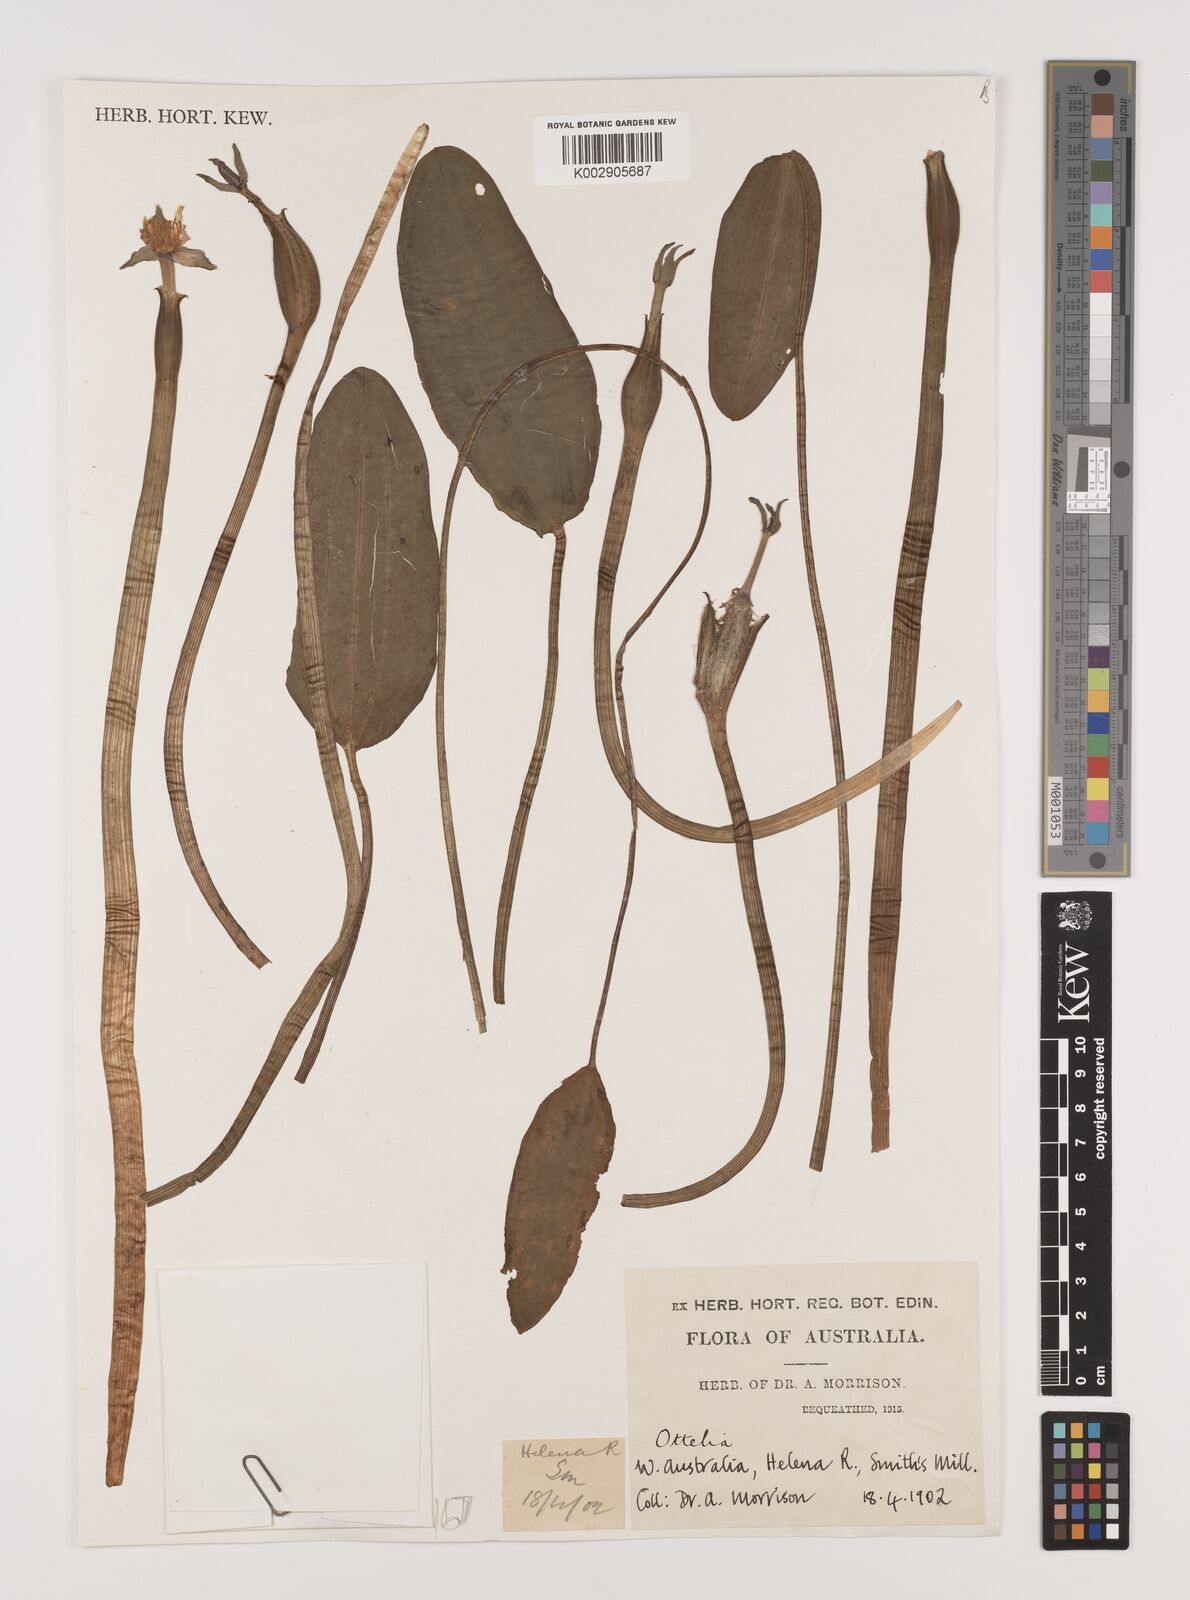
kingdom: Plantae
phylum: Tracheophyta
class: Liliopsida
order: Alismatales
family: Hydrocharitaceae
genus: Ottelia
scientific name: Ottelia ovalifolia
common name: Swamp-lily
